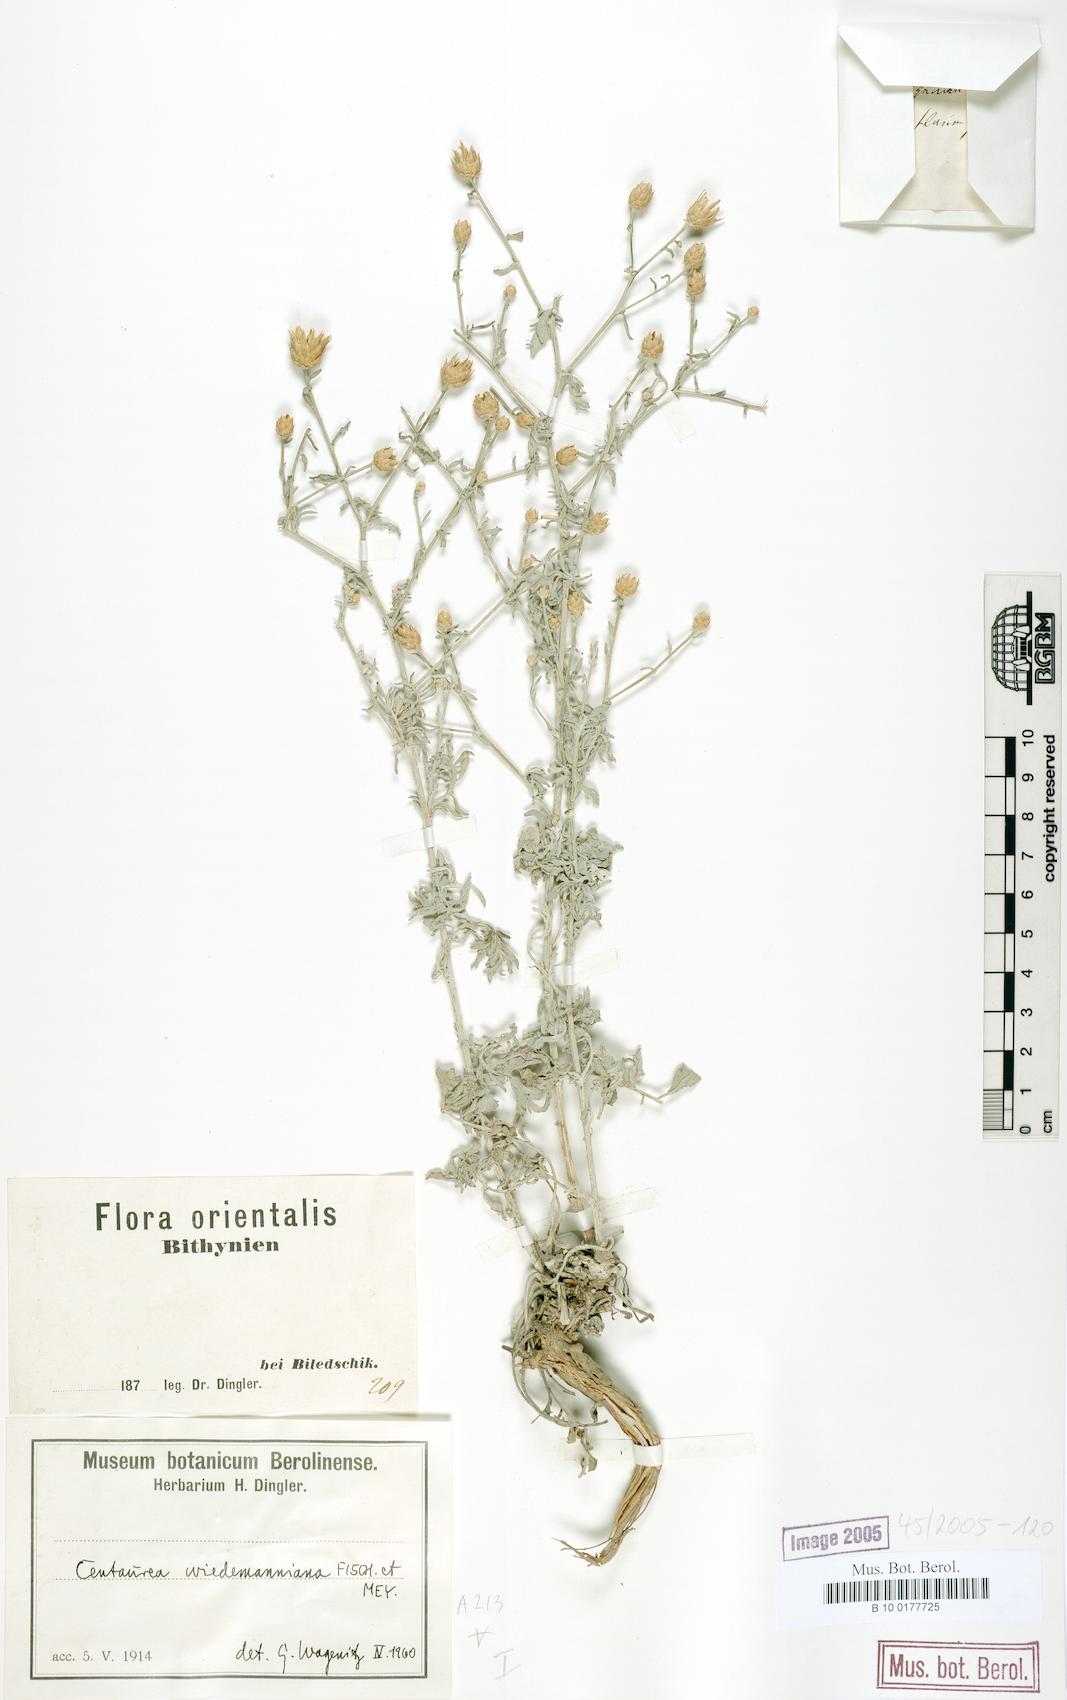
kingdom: Plantae
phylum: Tracheophyta
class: Magnoliopsida
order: Asterales
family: Asteraceae
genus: Centaurea
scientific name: Centaurea wiedemanniana
